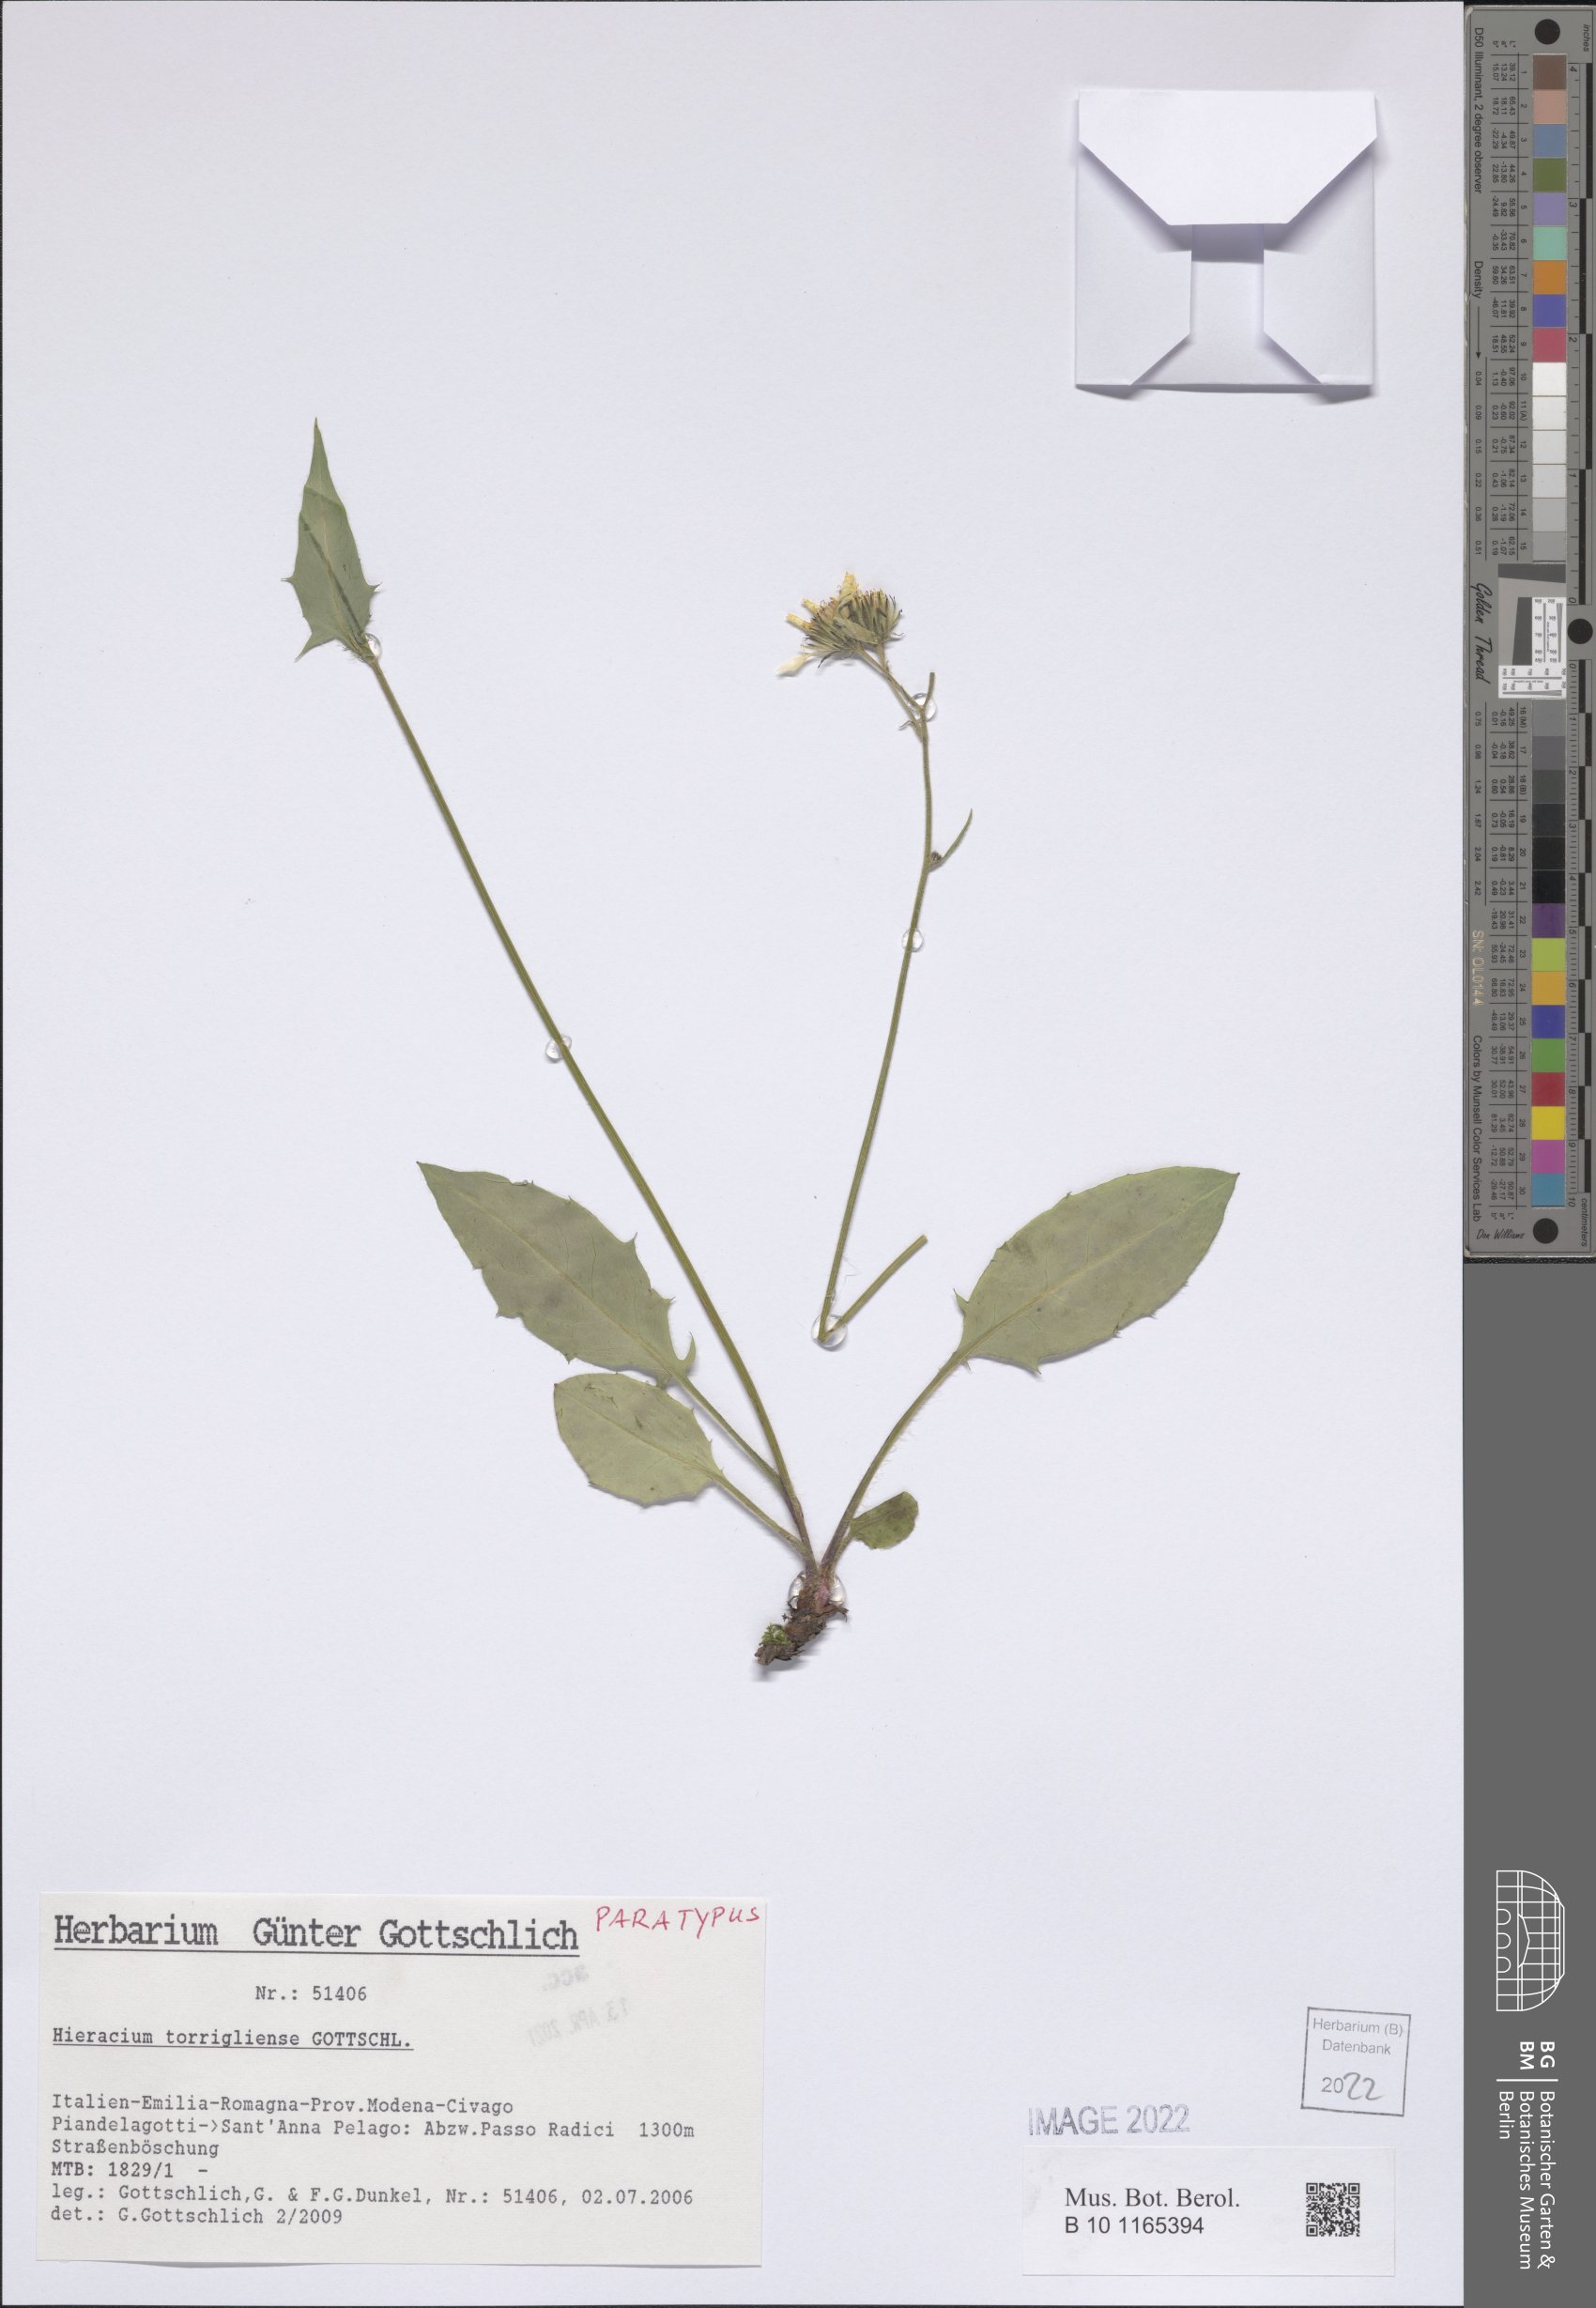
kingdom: Plantae
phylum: Tracheophyta
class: Magnoliopsida
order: Asterales
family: Asteraceae
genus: Hieracium
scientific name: Hieracium torrigliense
